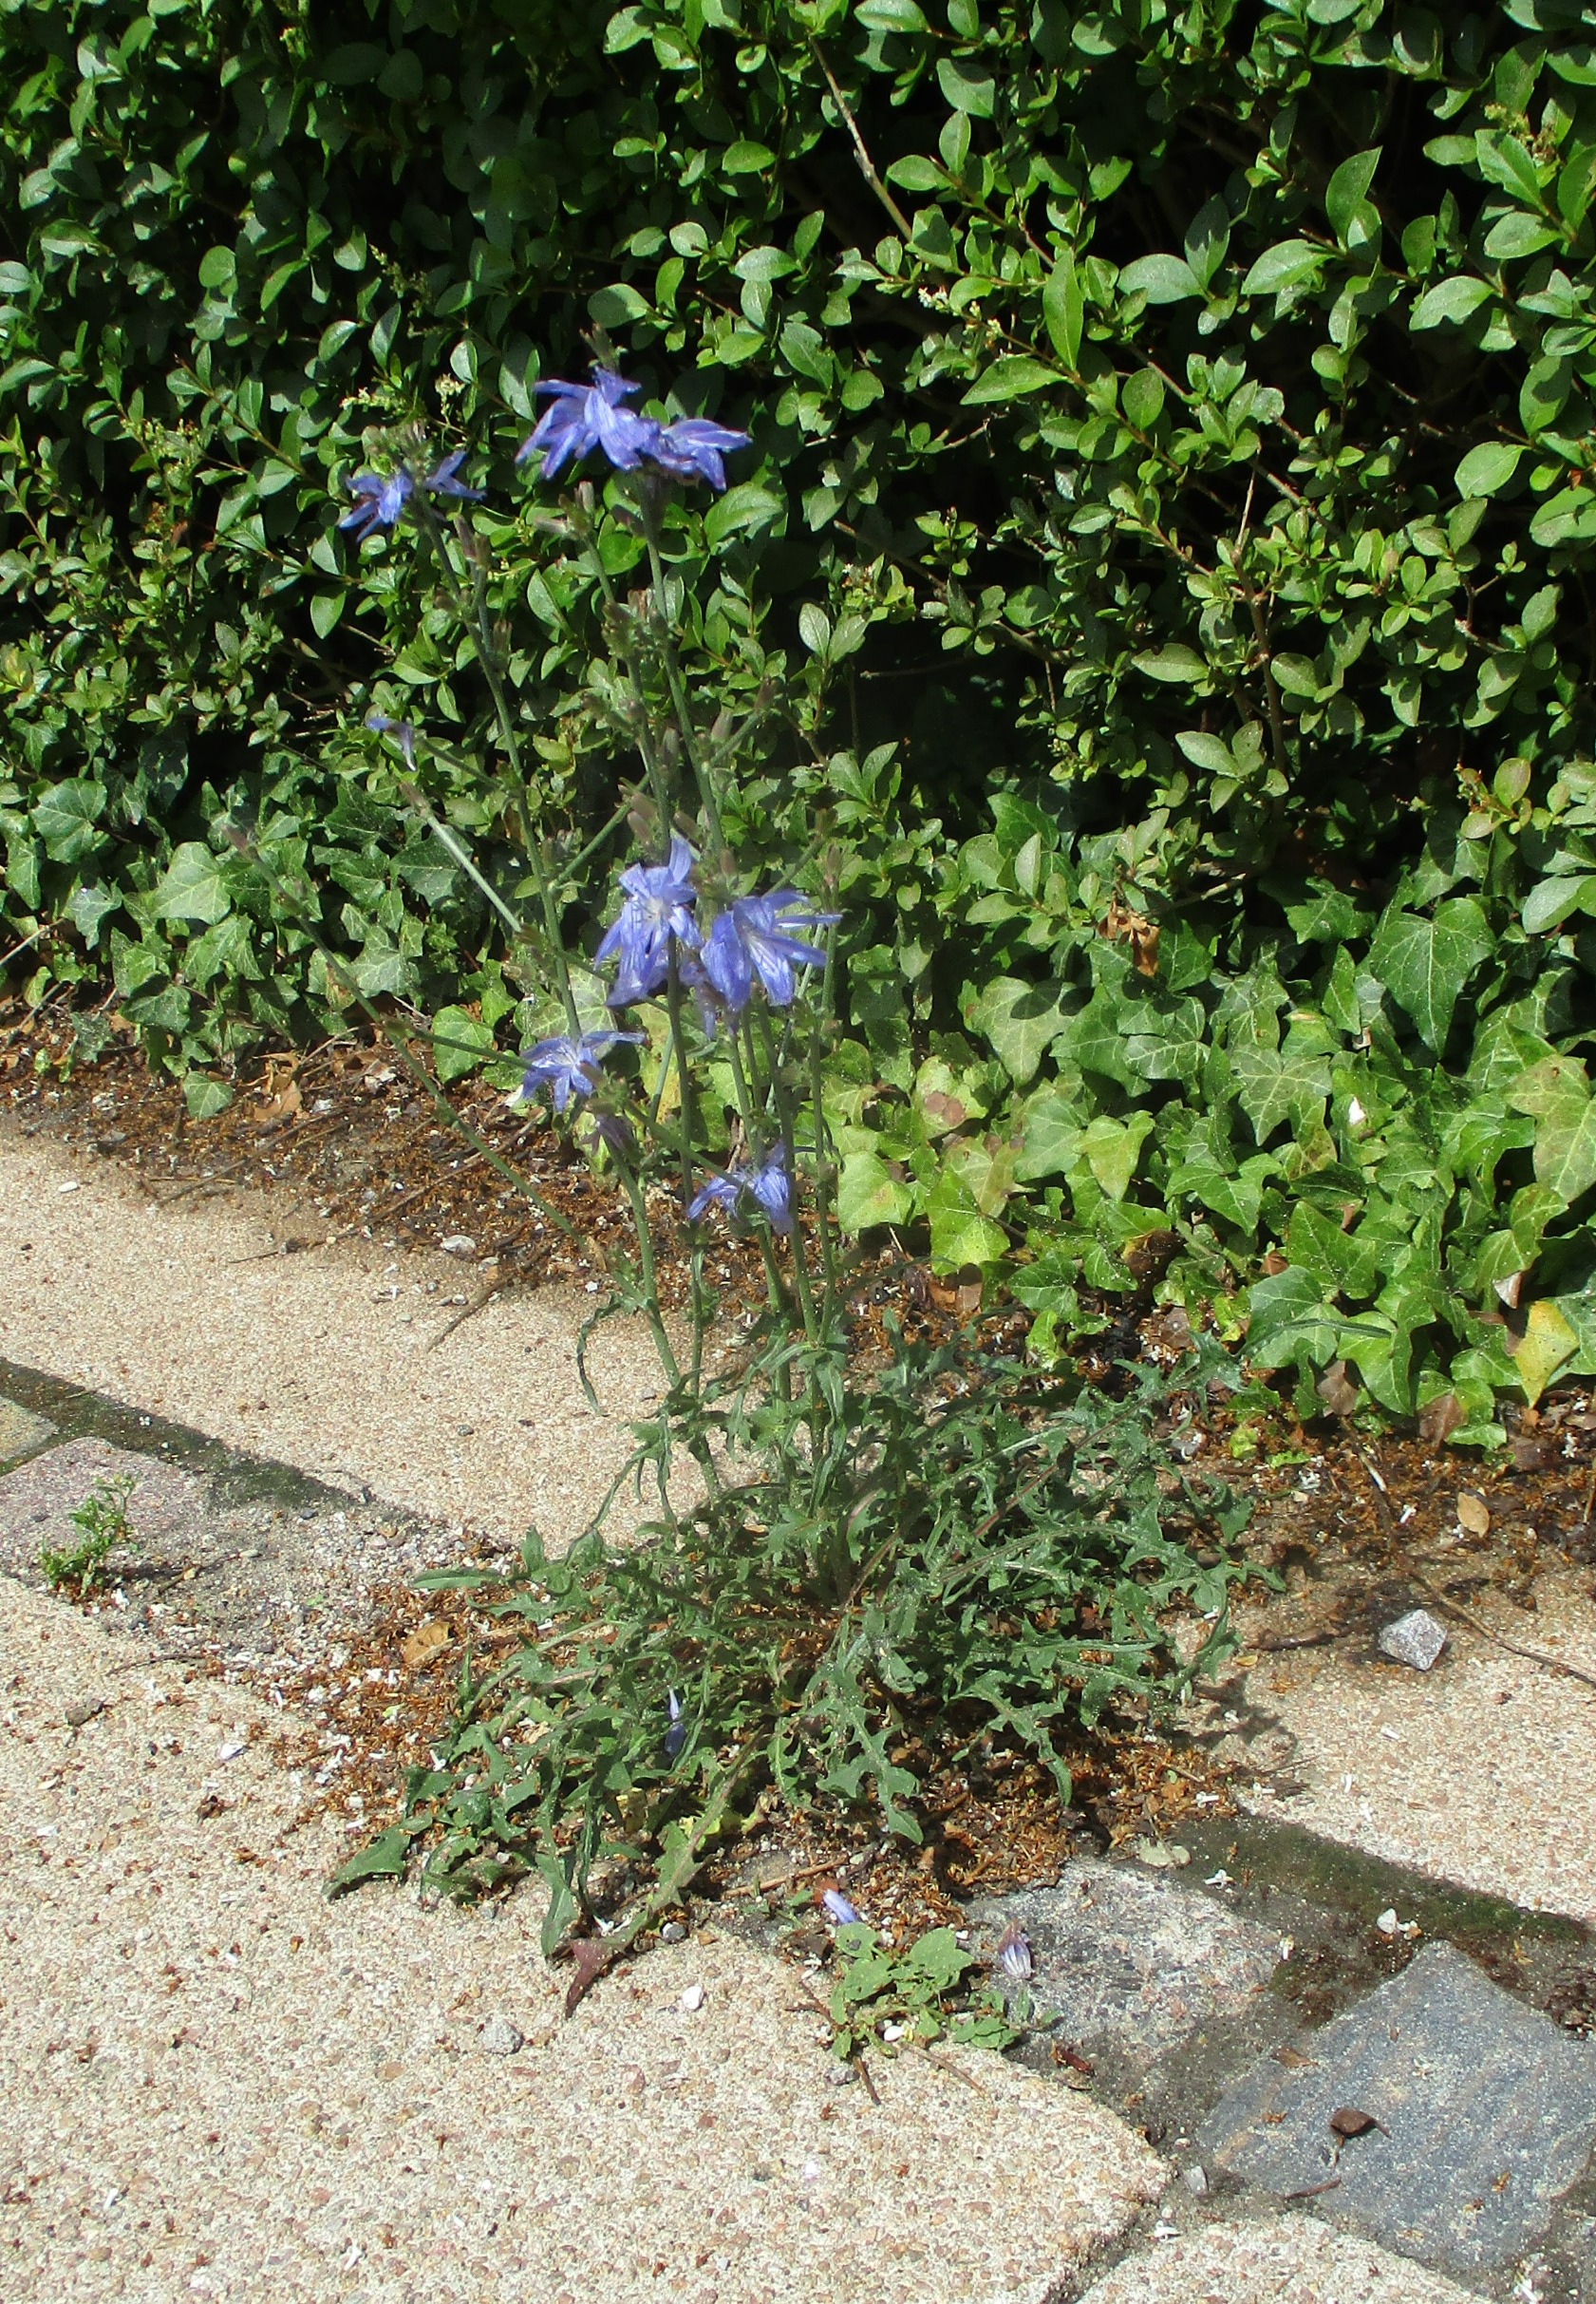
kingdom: Plantae
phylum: Tracheophyta
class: Magnoliopsida
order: Asterales
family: Asteraceae
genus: Cichorium
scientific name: Cichorium intybus
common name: Cikorie
